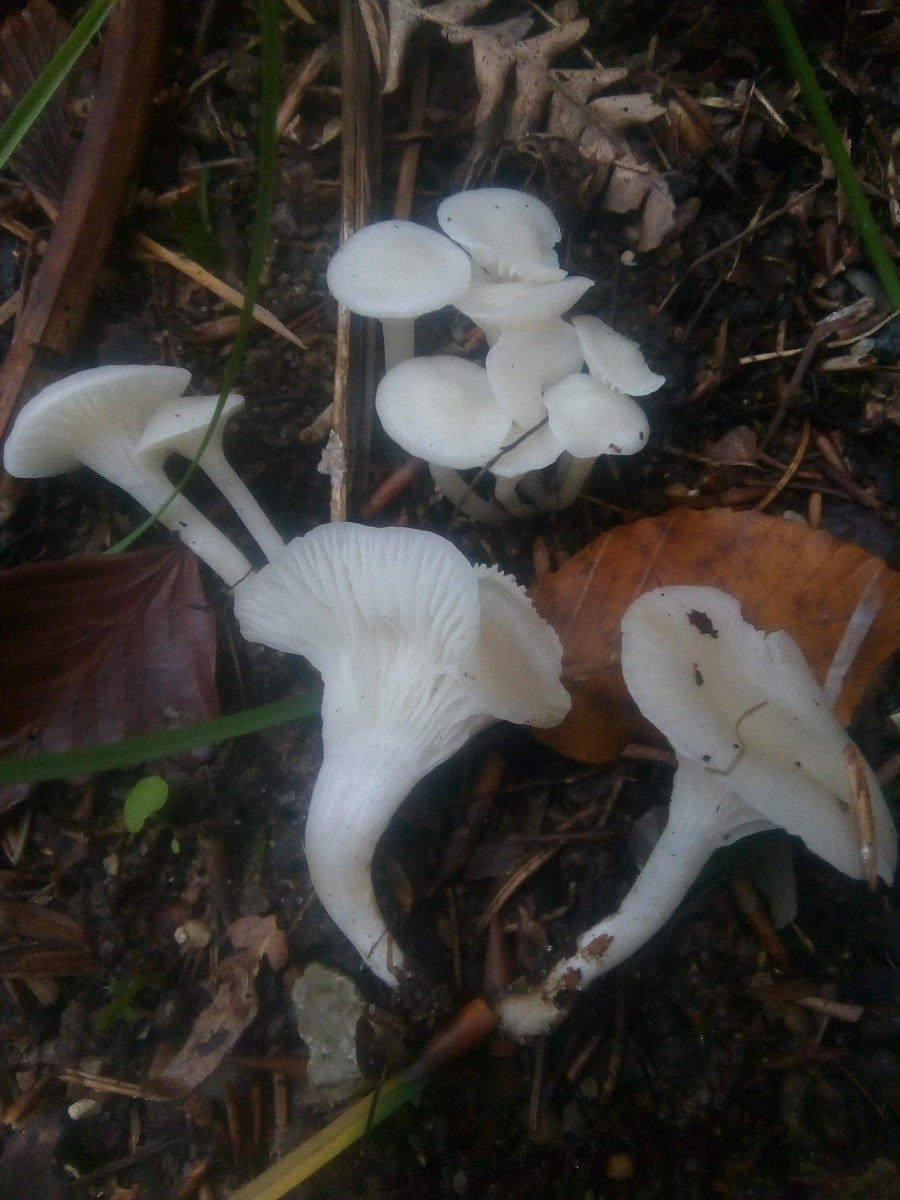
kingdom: Fungi
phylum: Basidiomycota
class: Agaricomycetes
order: Agaricales
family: Hygrophoraceae
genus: Cuphophyllus
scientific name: Cuphophyllus virgineus
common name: snehvid vokshat
